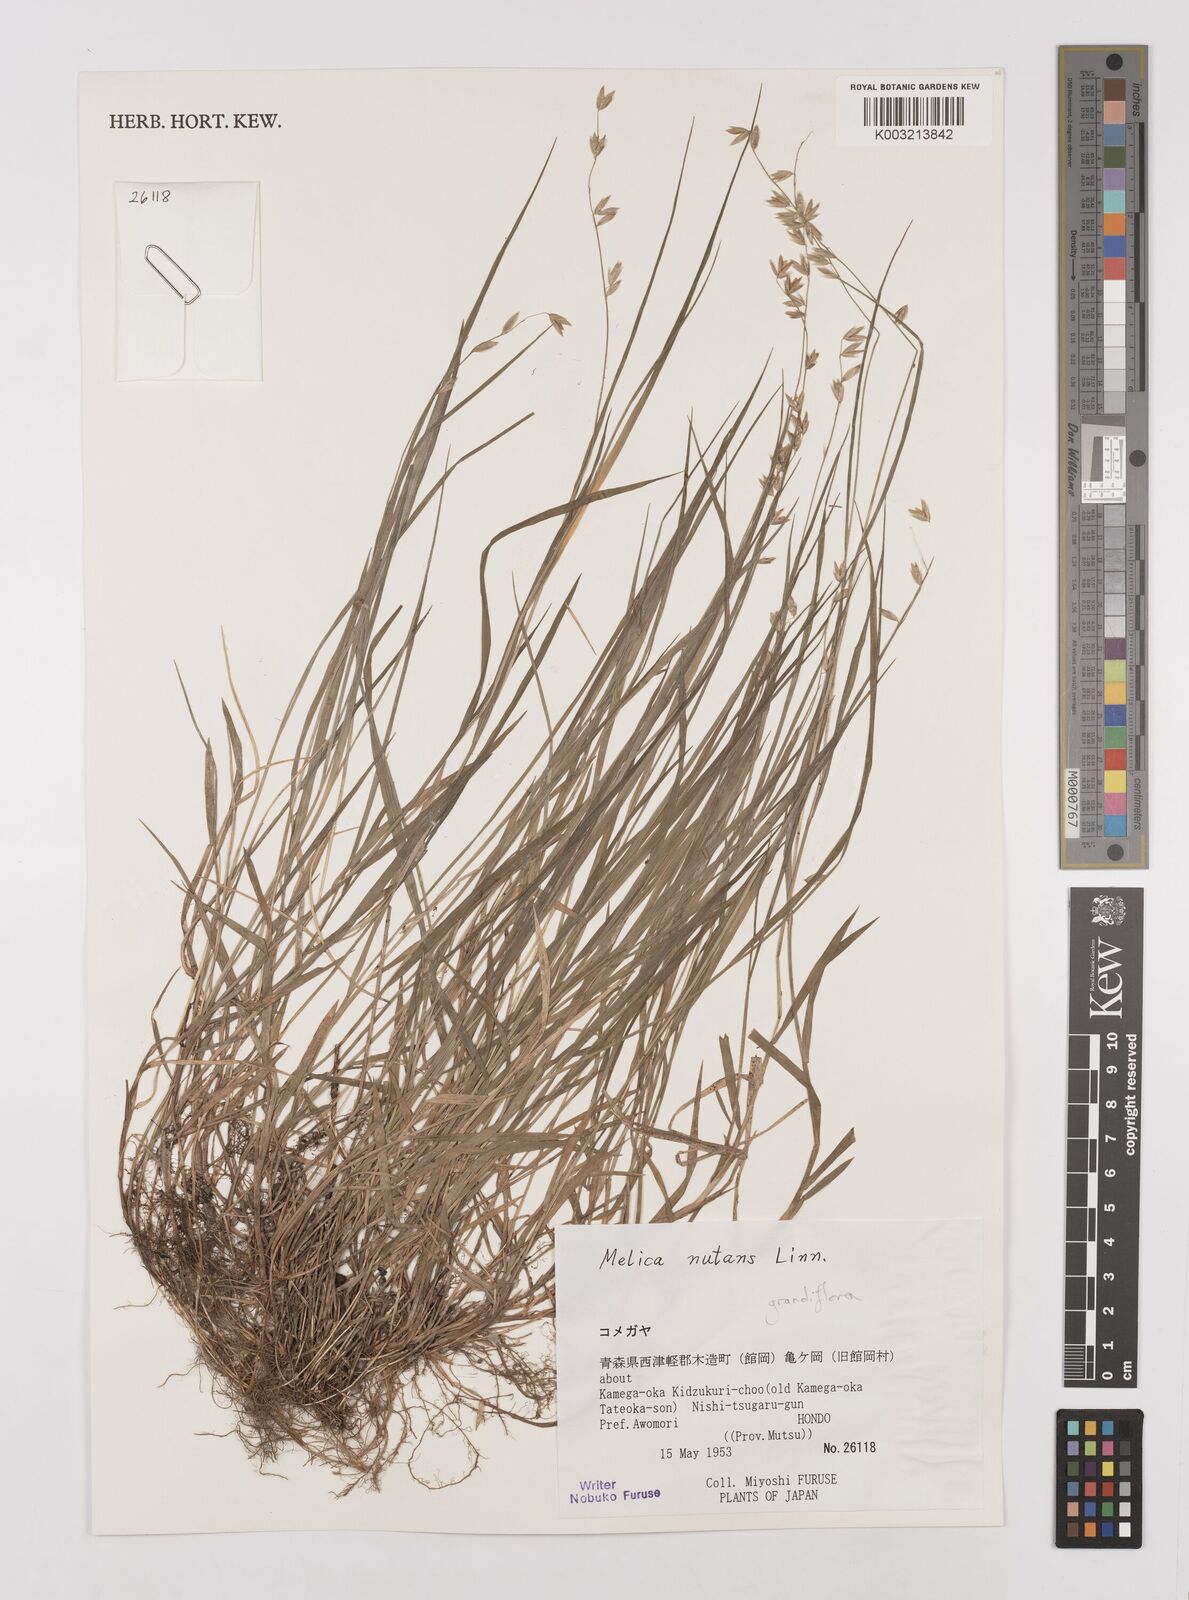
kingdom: Plantae
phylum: Tracheophyta
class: Liliopsida
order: Poales
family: Poaceae
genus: Melica
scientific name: Melica nutans
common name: Mountain melick
